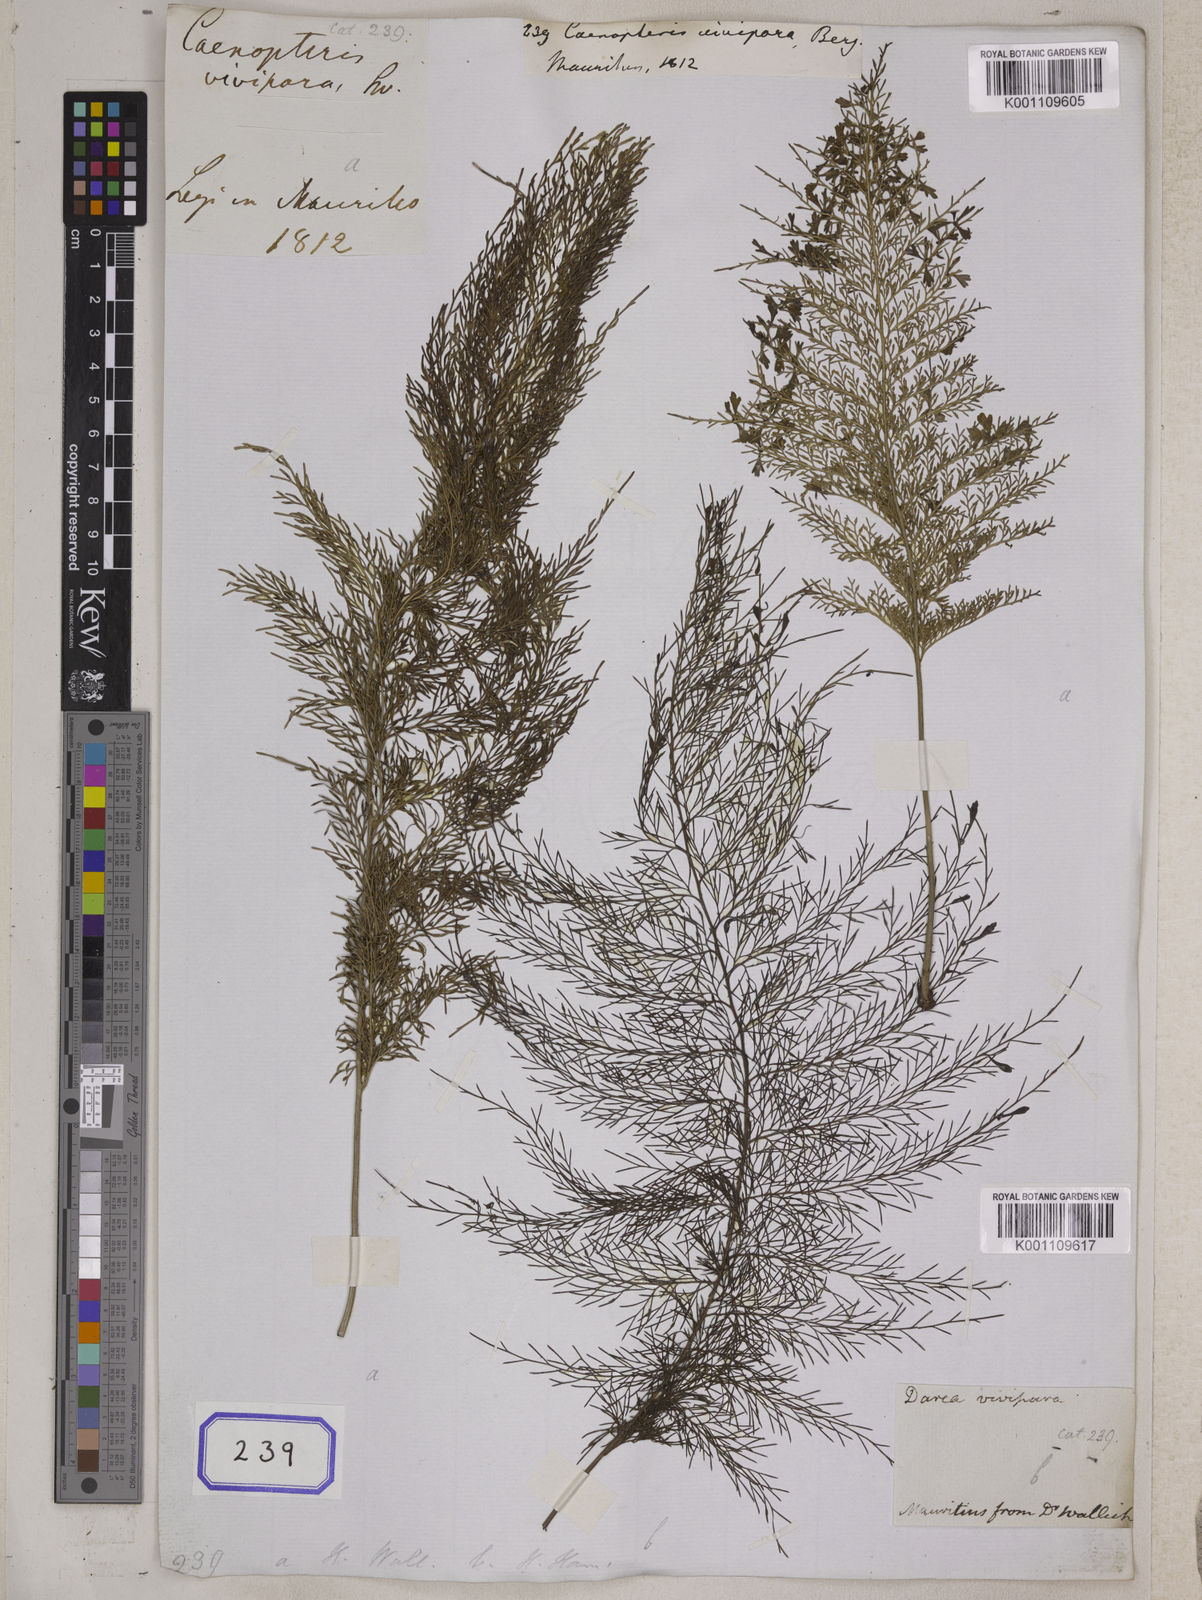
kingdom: Plantae
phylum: Tracheophyta
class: Polypodiopsida
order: Polypodiales
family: Aspleniaceae
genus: Asplenium
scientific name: Asplenium daucifolium
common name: Mauritius spleenwort
